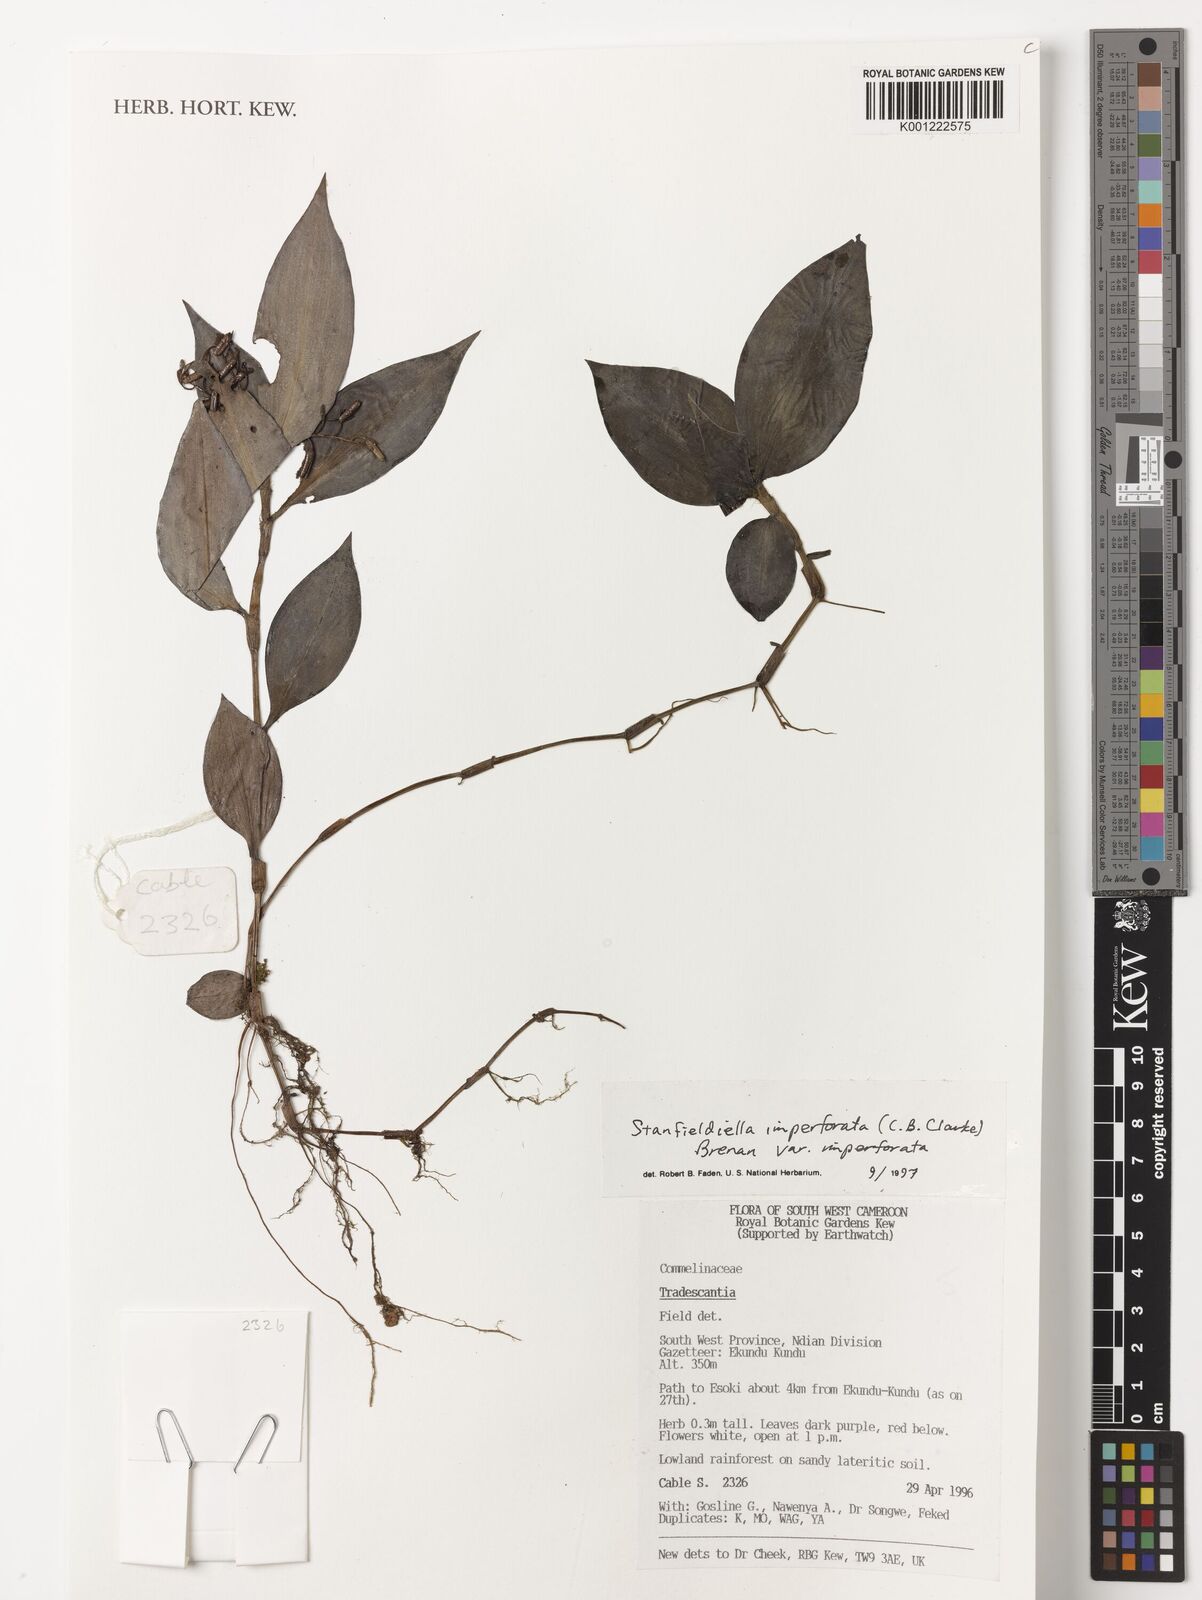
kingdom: Plantae
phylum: Tracheophyta
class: Liliopsida
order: Commelinales
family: Commelinaceae
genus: Stanfieldiella
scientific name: Stanfieldiella imperforata
